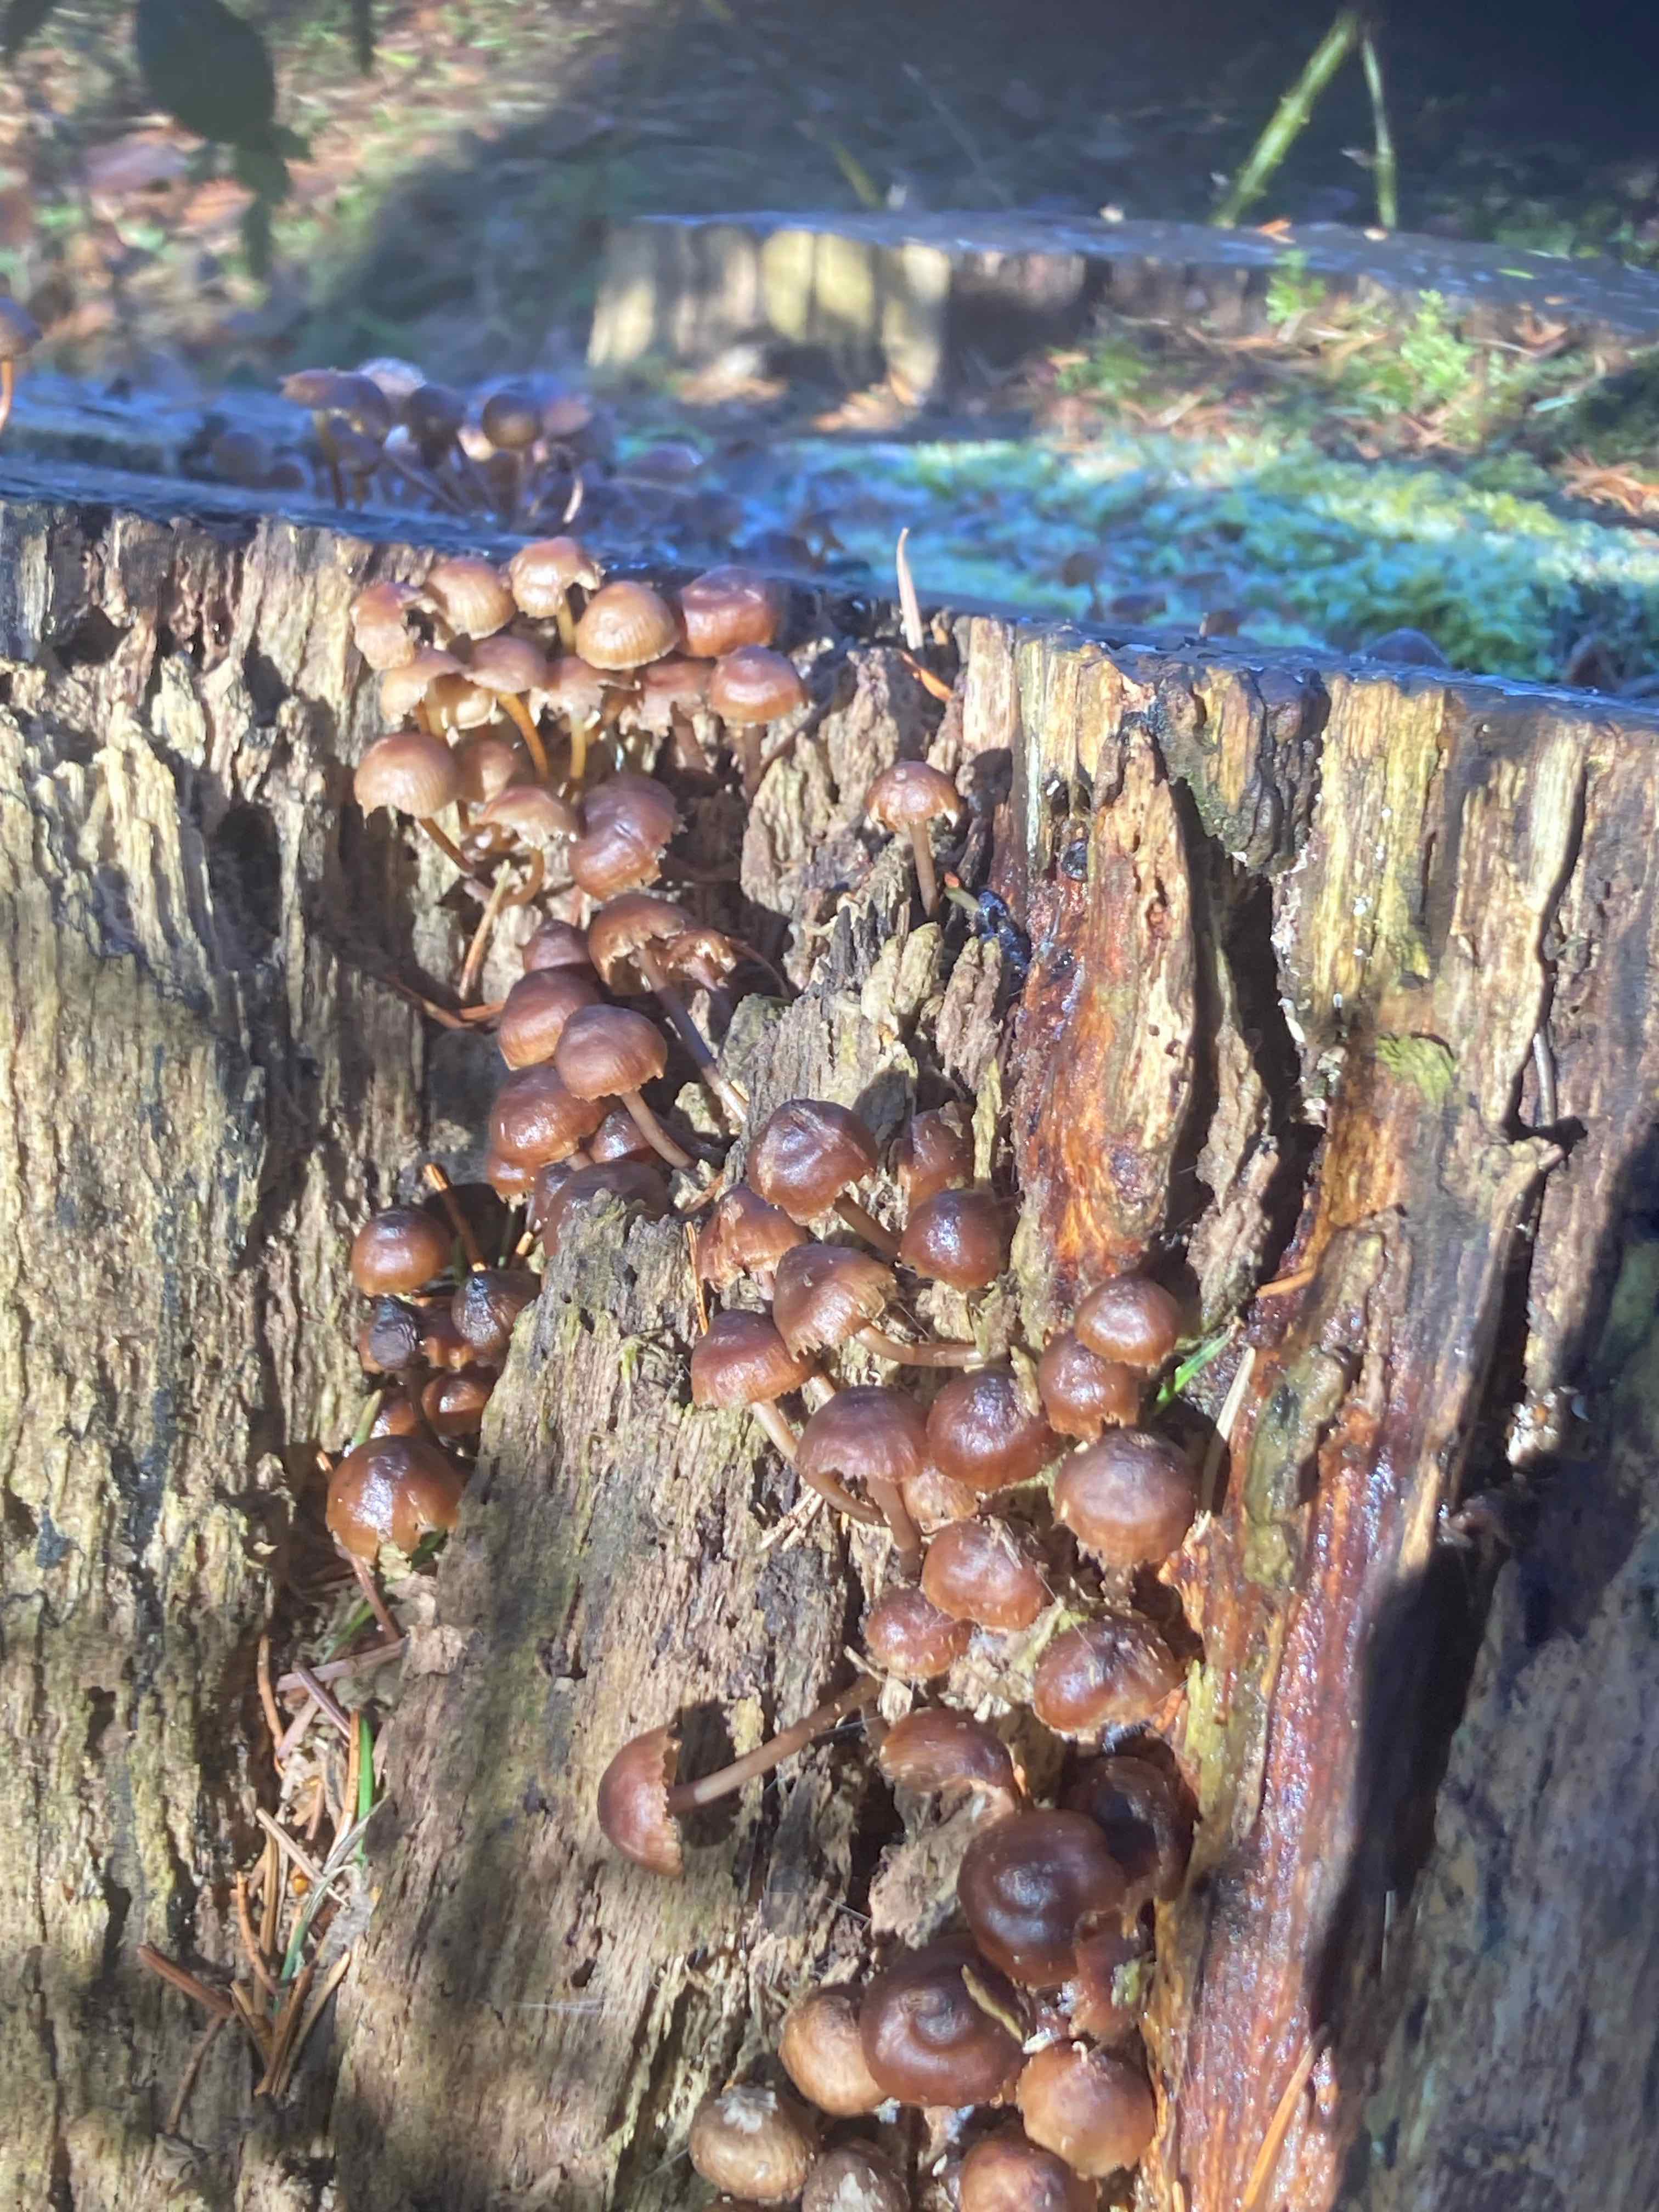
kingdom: Fungi
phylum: Basidiomycota
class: Agaricomycetes
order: Agaricales
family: Mycenaceae
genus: Mycena
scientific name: Mycena tintinnabulum
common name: vinter-huesvamp
